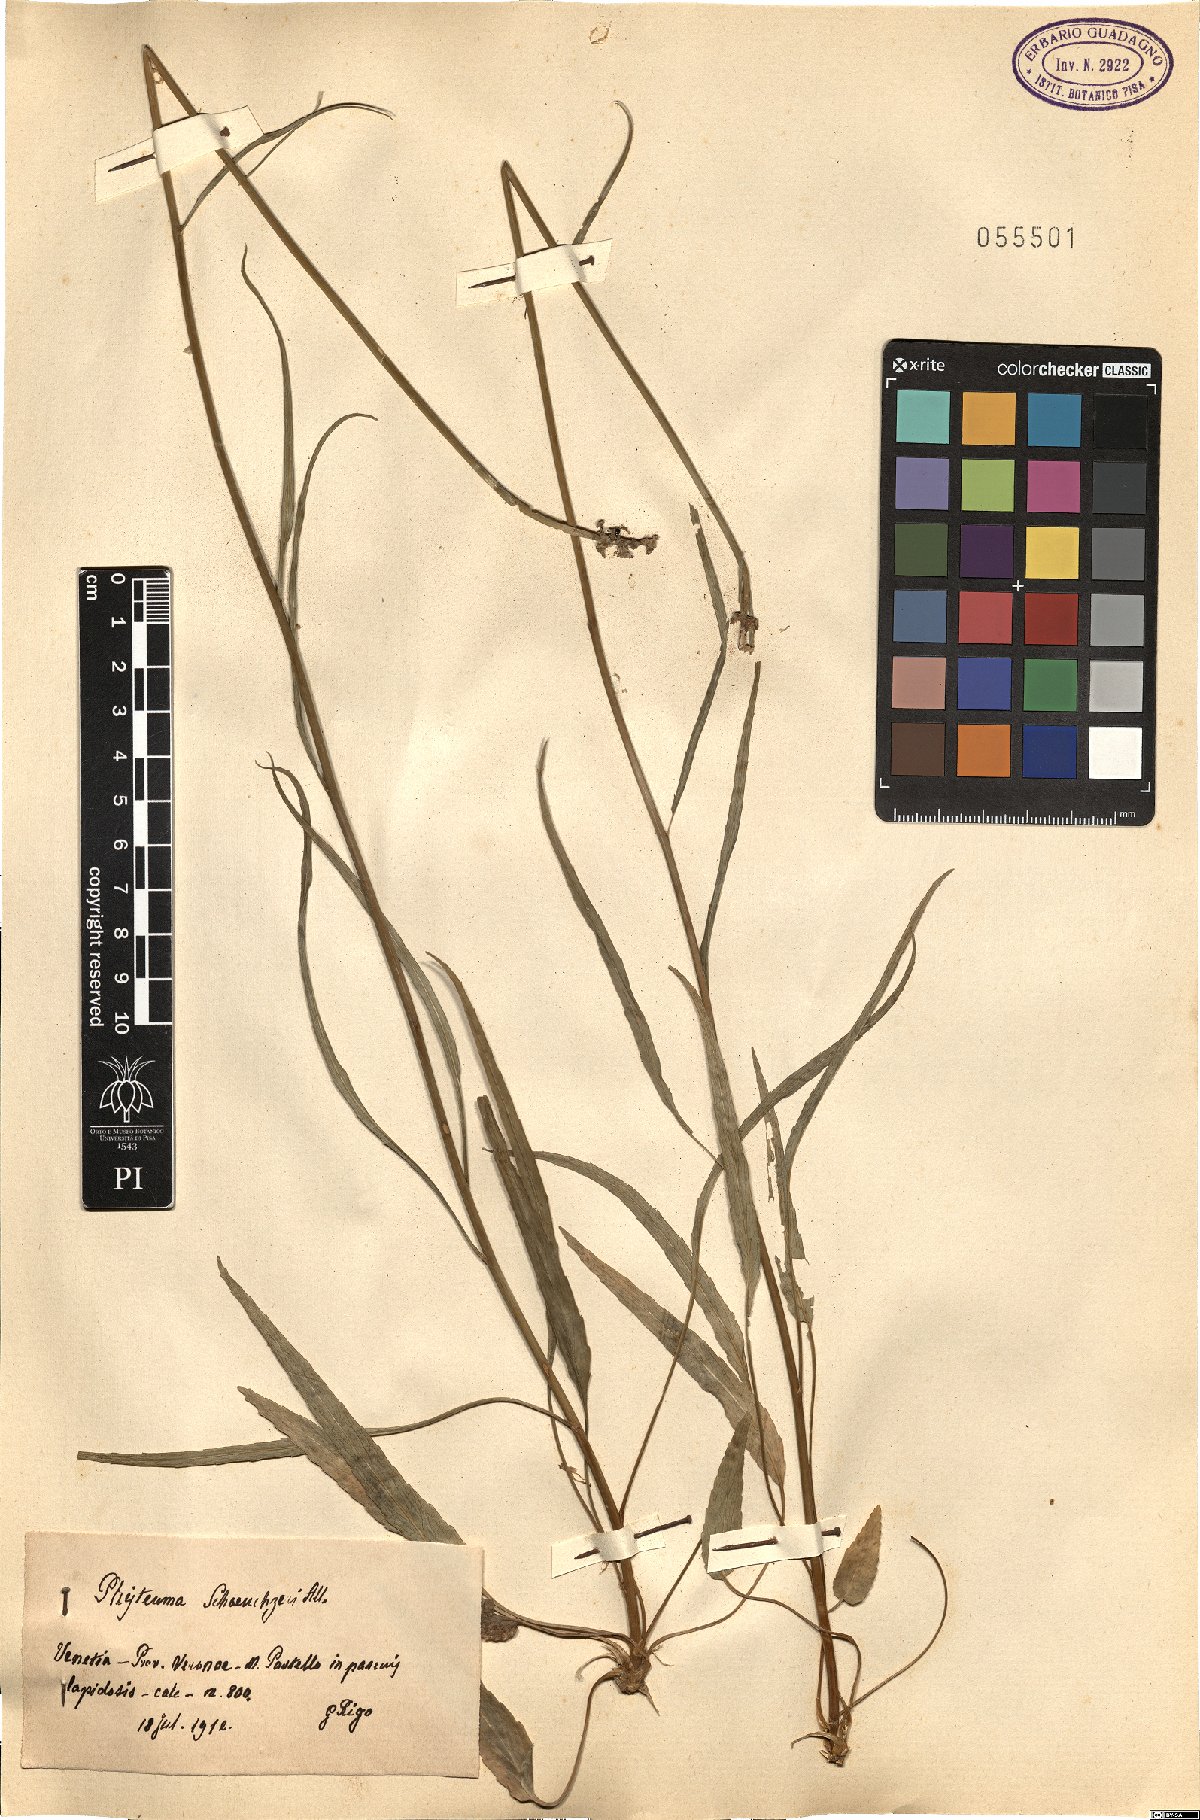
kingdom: Plantae
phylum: Tracheophyta
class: Magnoliopsida
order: Asterales
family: Campanulaceae
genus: Phyteuma
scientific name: Phyteuma scheuchzeri
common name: Oxford rampion
